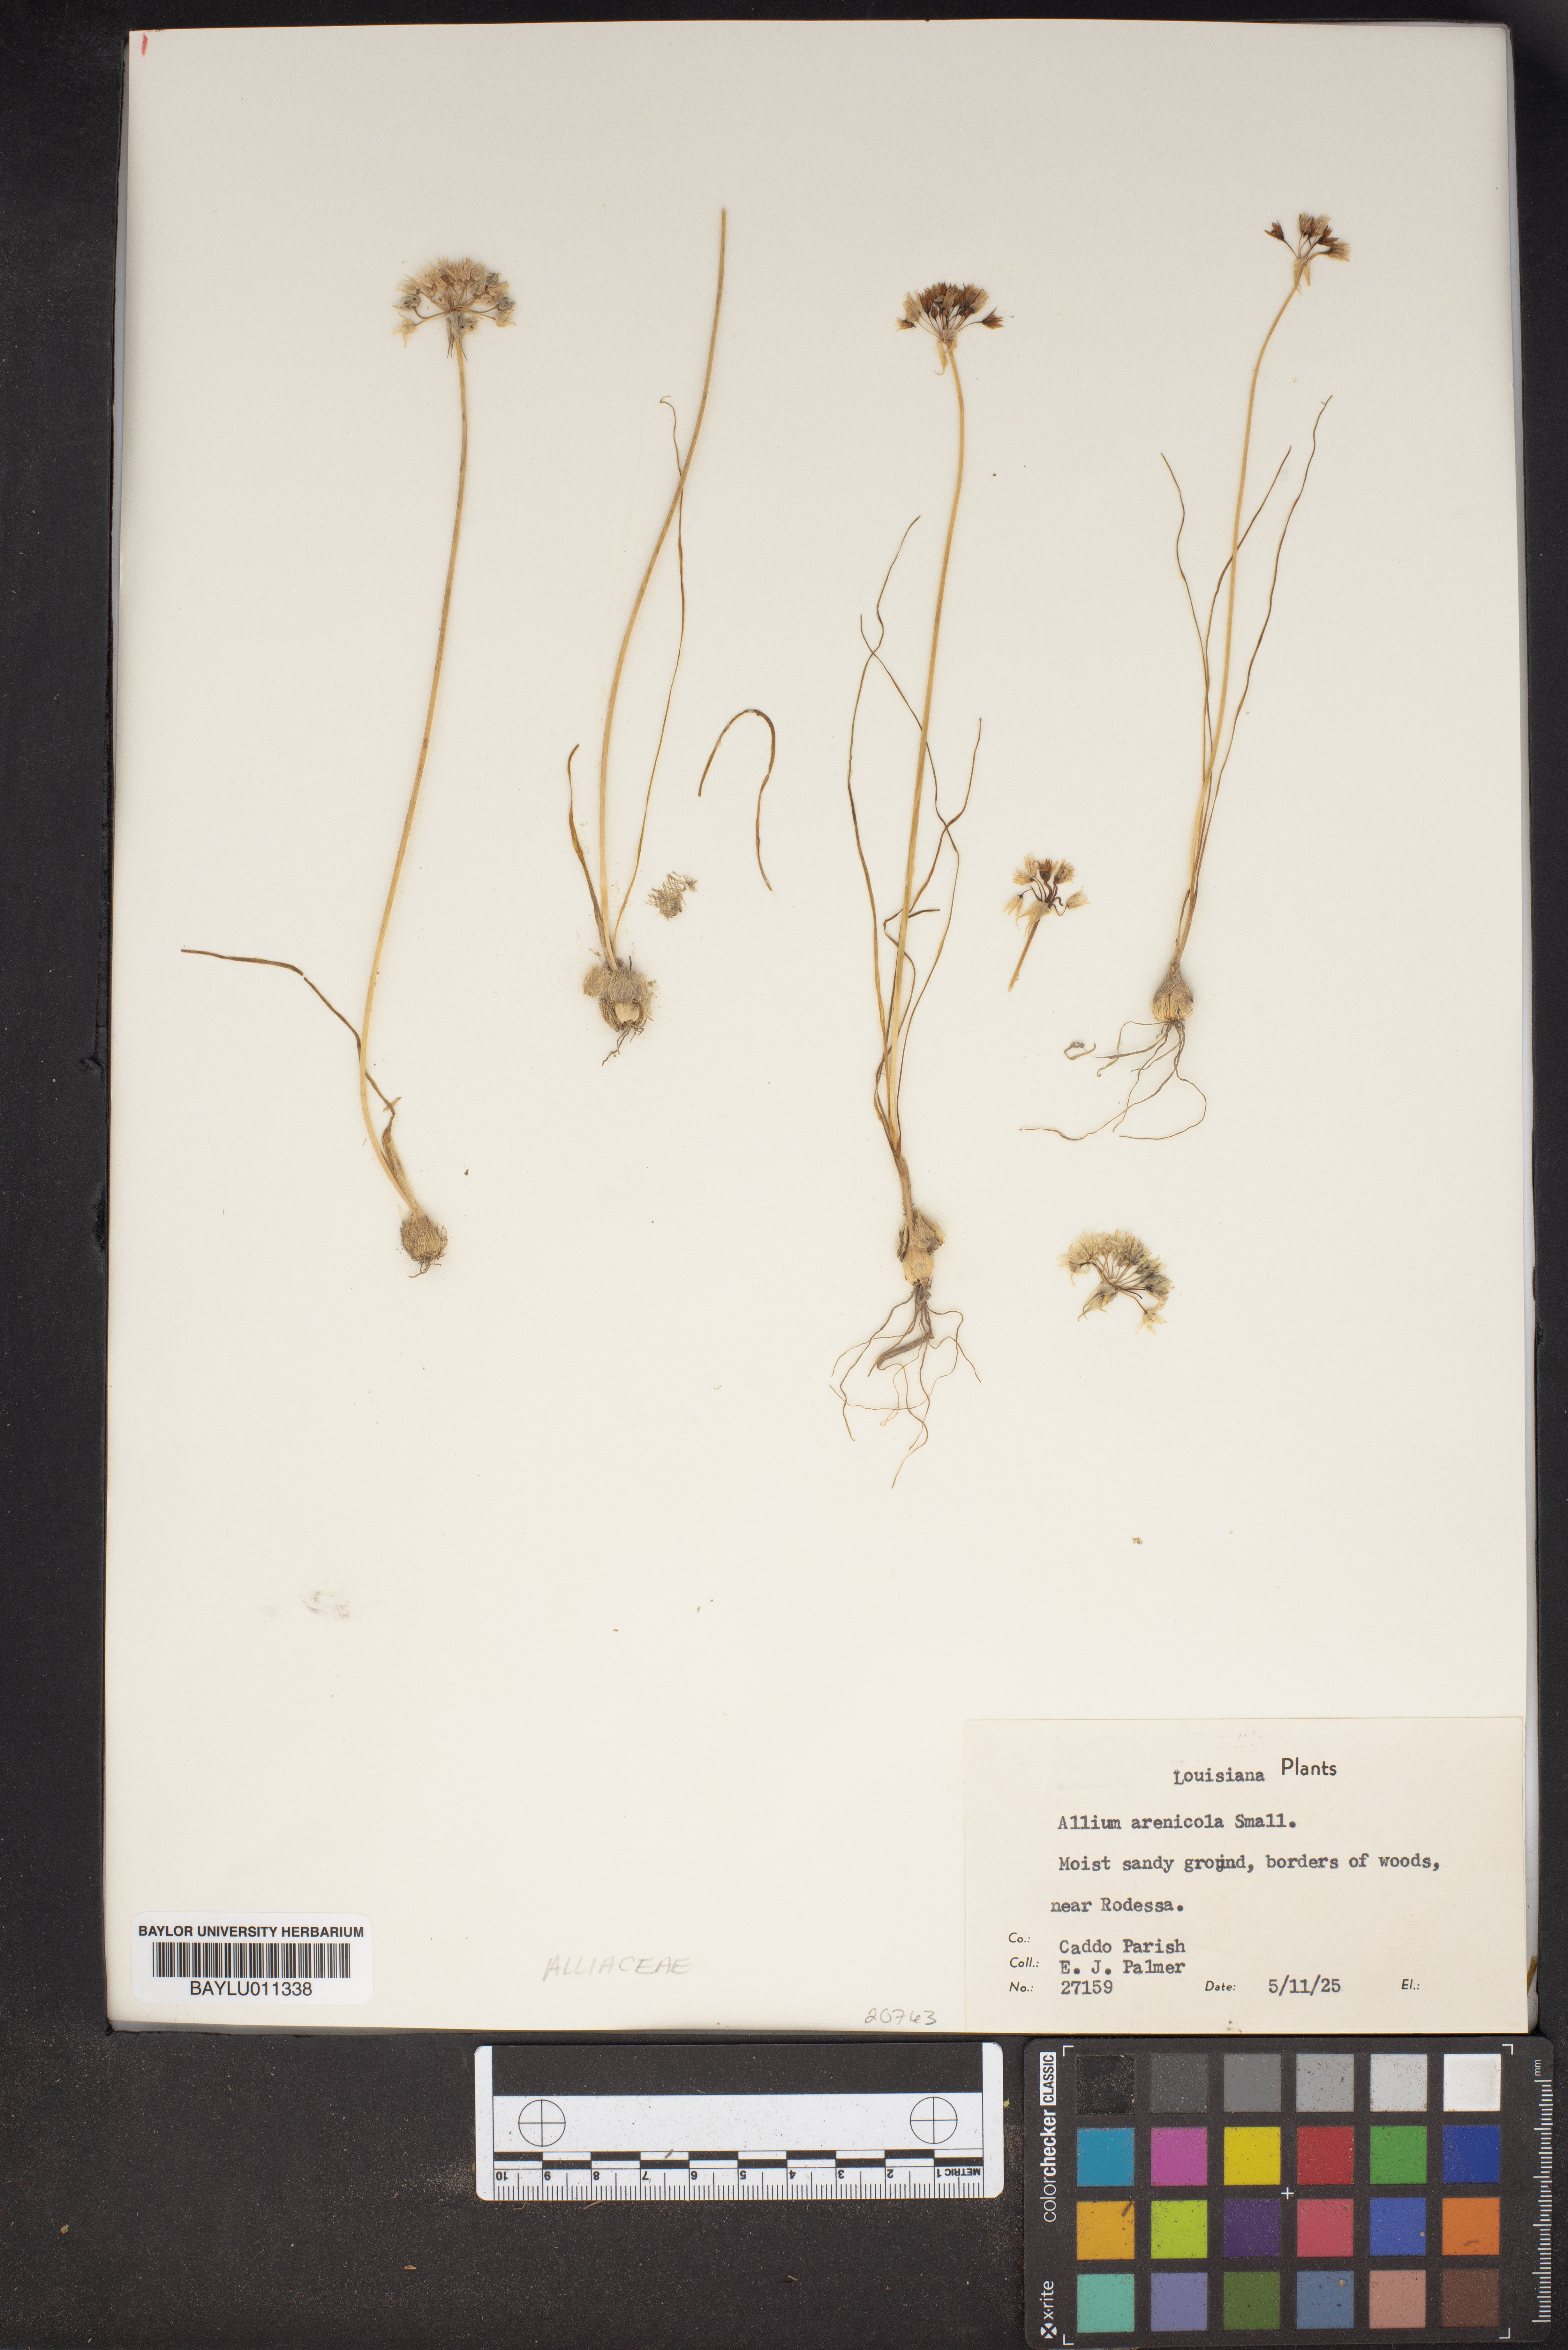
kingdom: Plantae
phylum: Tracheophyta
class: Liliopsida
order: Asparagales
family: Amaryllidaceae
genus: Allium
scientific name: Allium geyeri
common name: Geyer's onion
